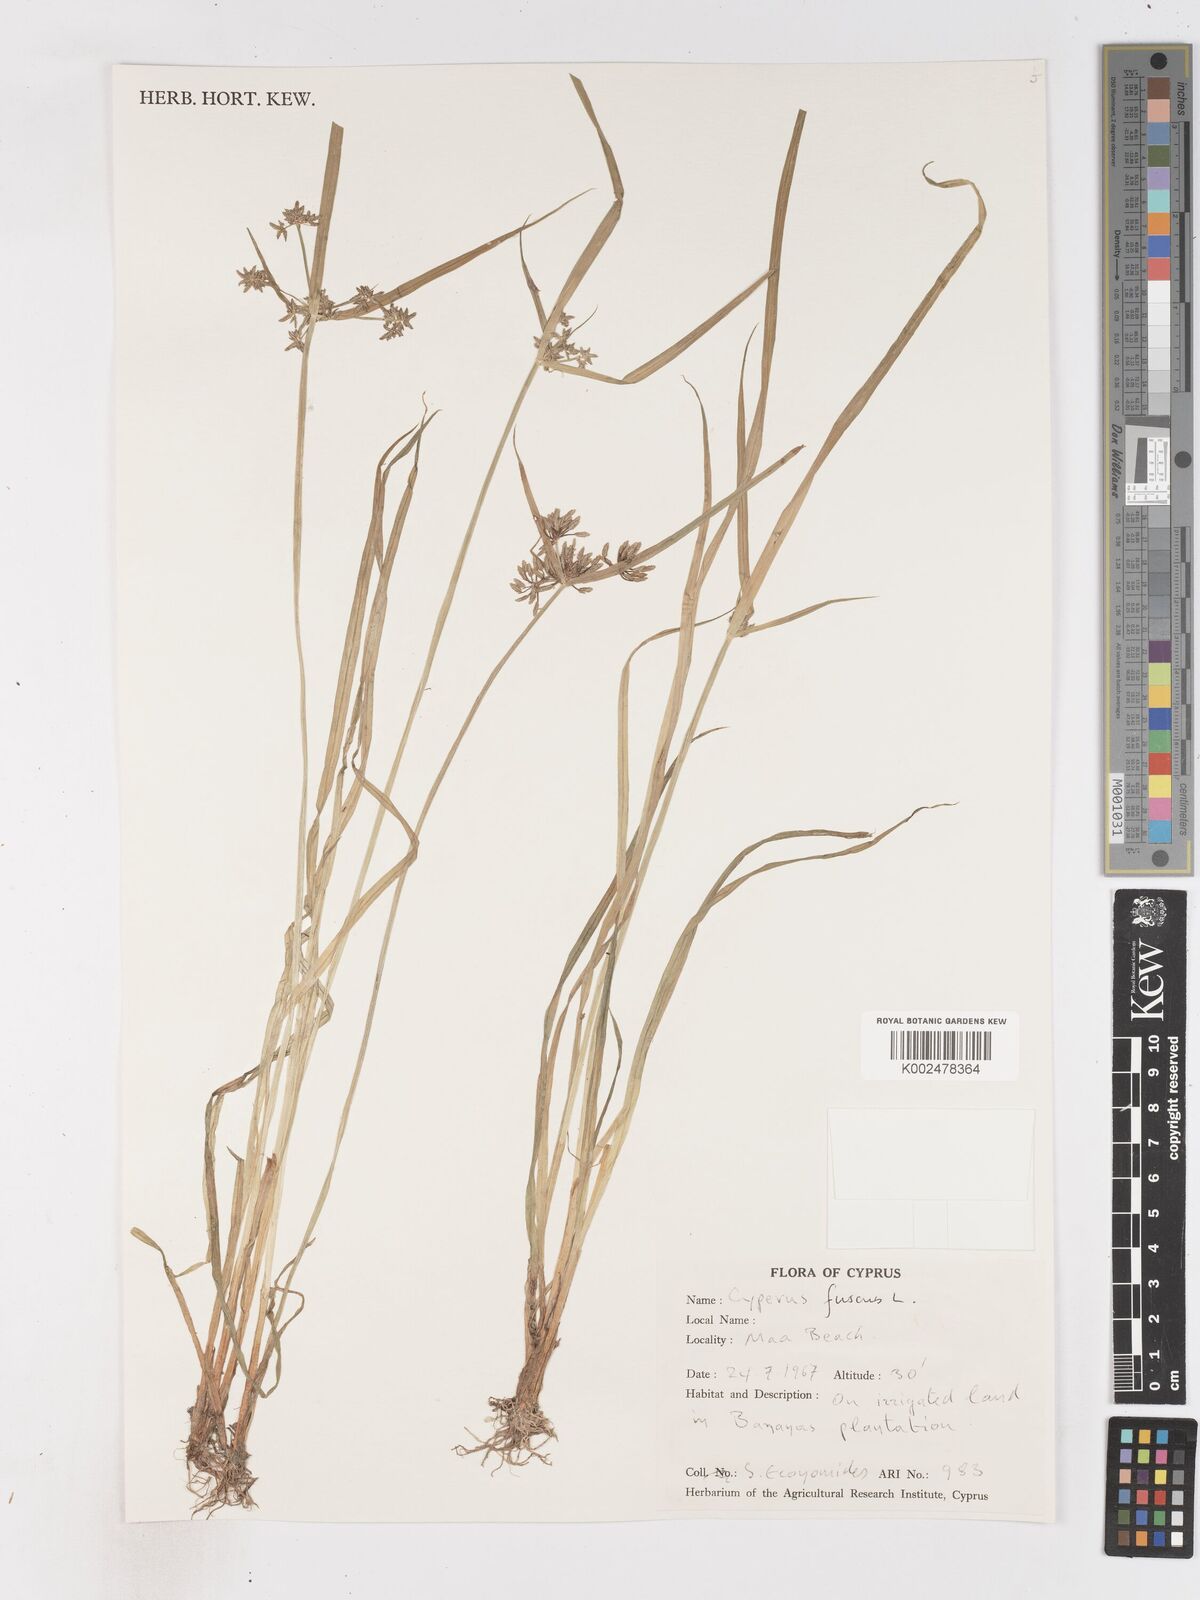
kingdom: Plantae
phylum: Tracheophyta
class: Liliopsida
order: Poales
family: Cyperaceae
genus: Cyperus
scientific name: Cyperus fuscus
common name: Brown galingale
